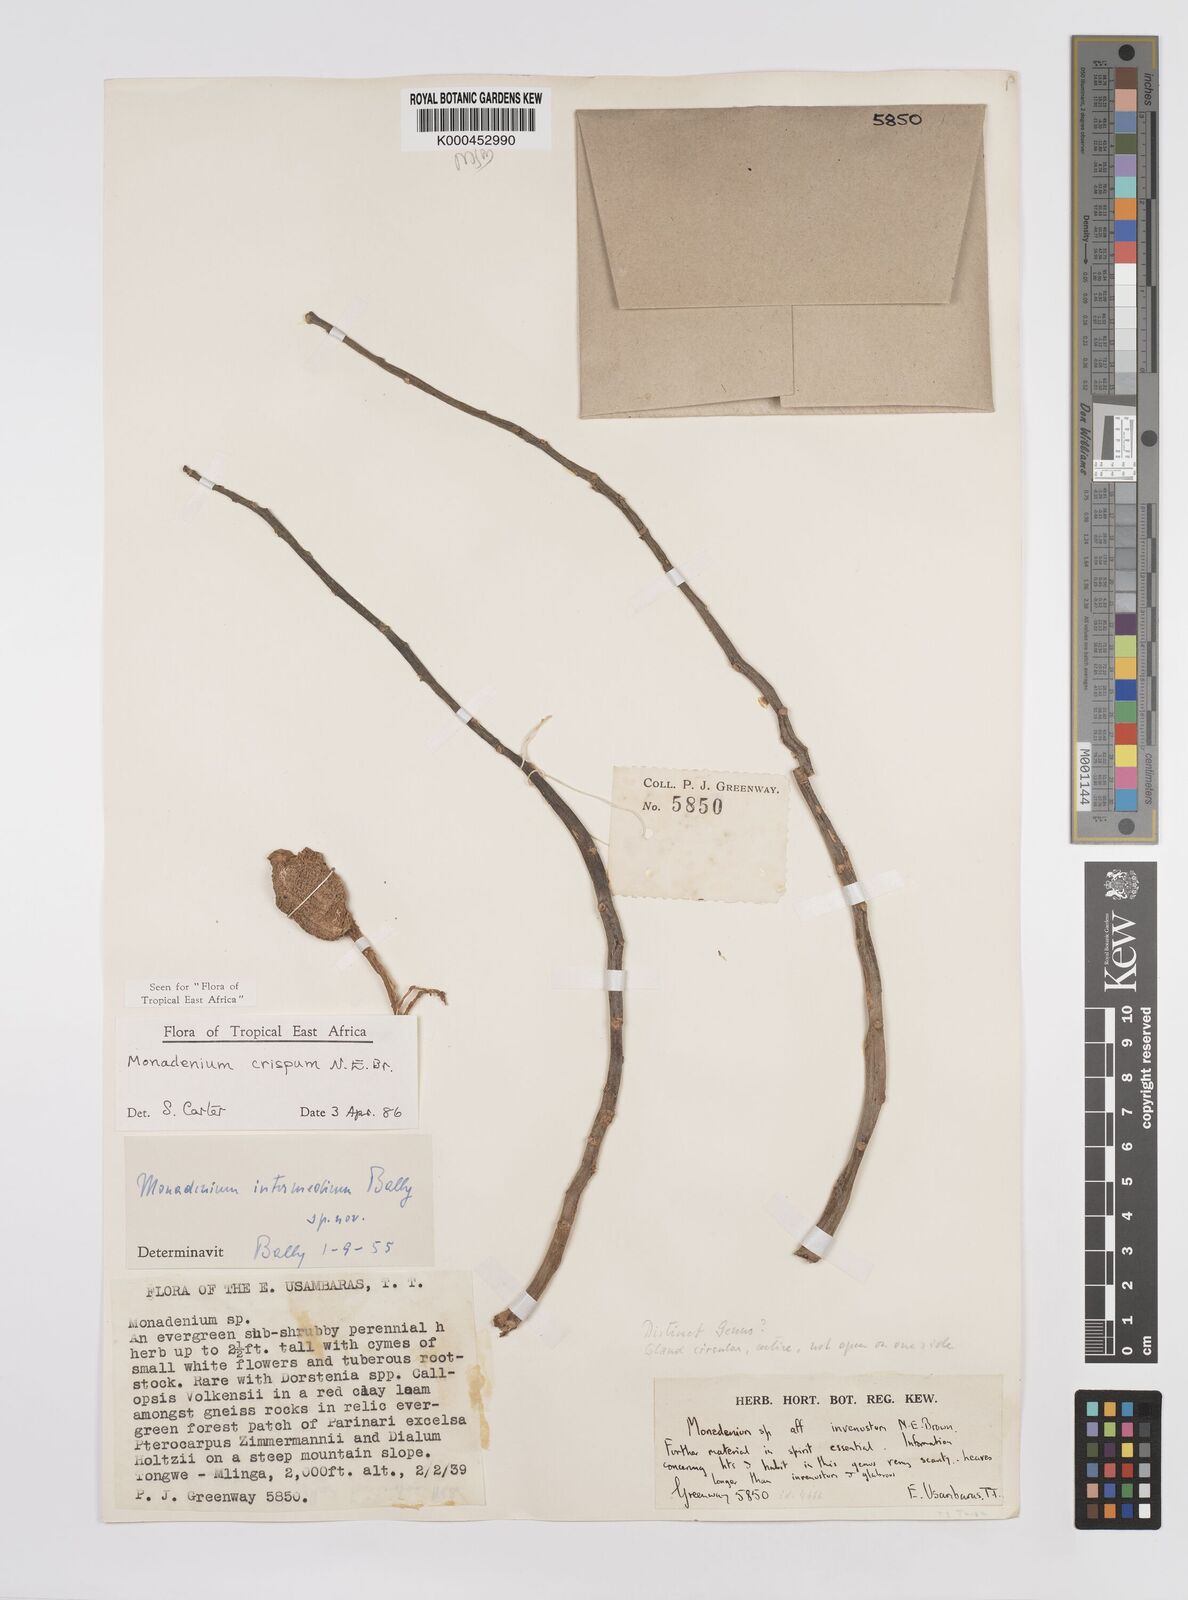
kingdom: Plantae
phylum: Tracheophyta
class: Magnoliopsida
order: Malpighiales
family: Euphorbiaceae
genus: Euphorbia
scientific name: Euphorbia neocrispa
